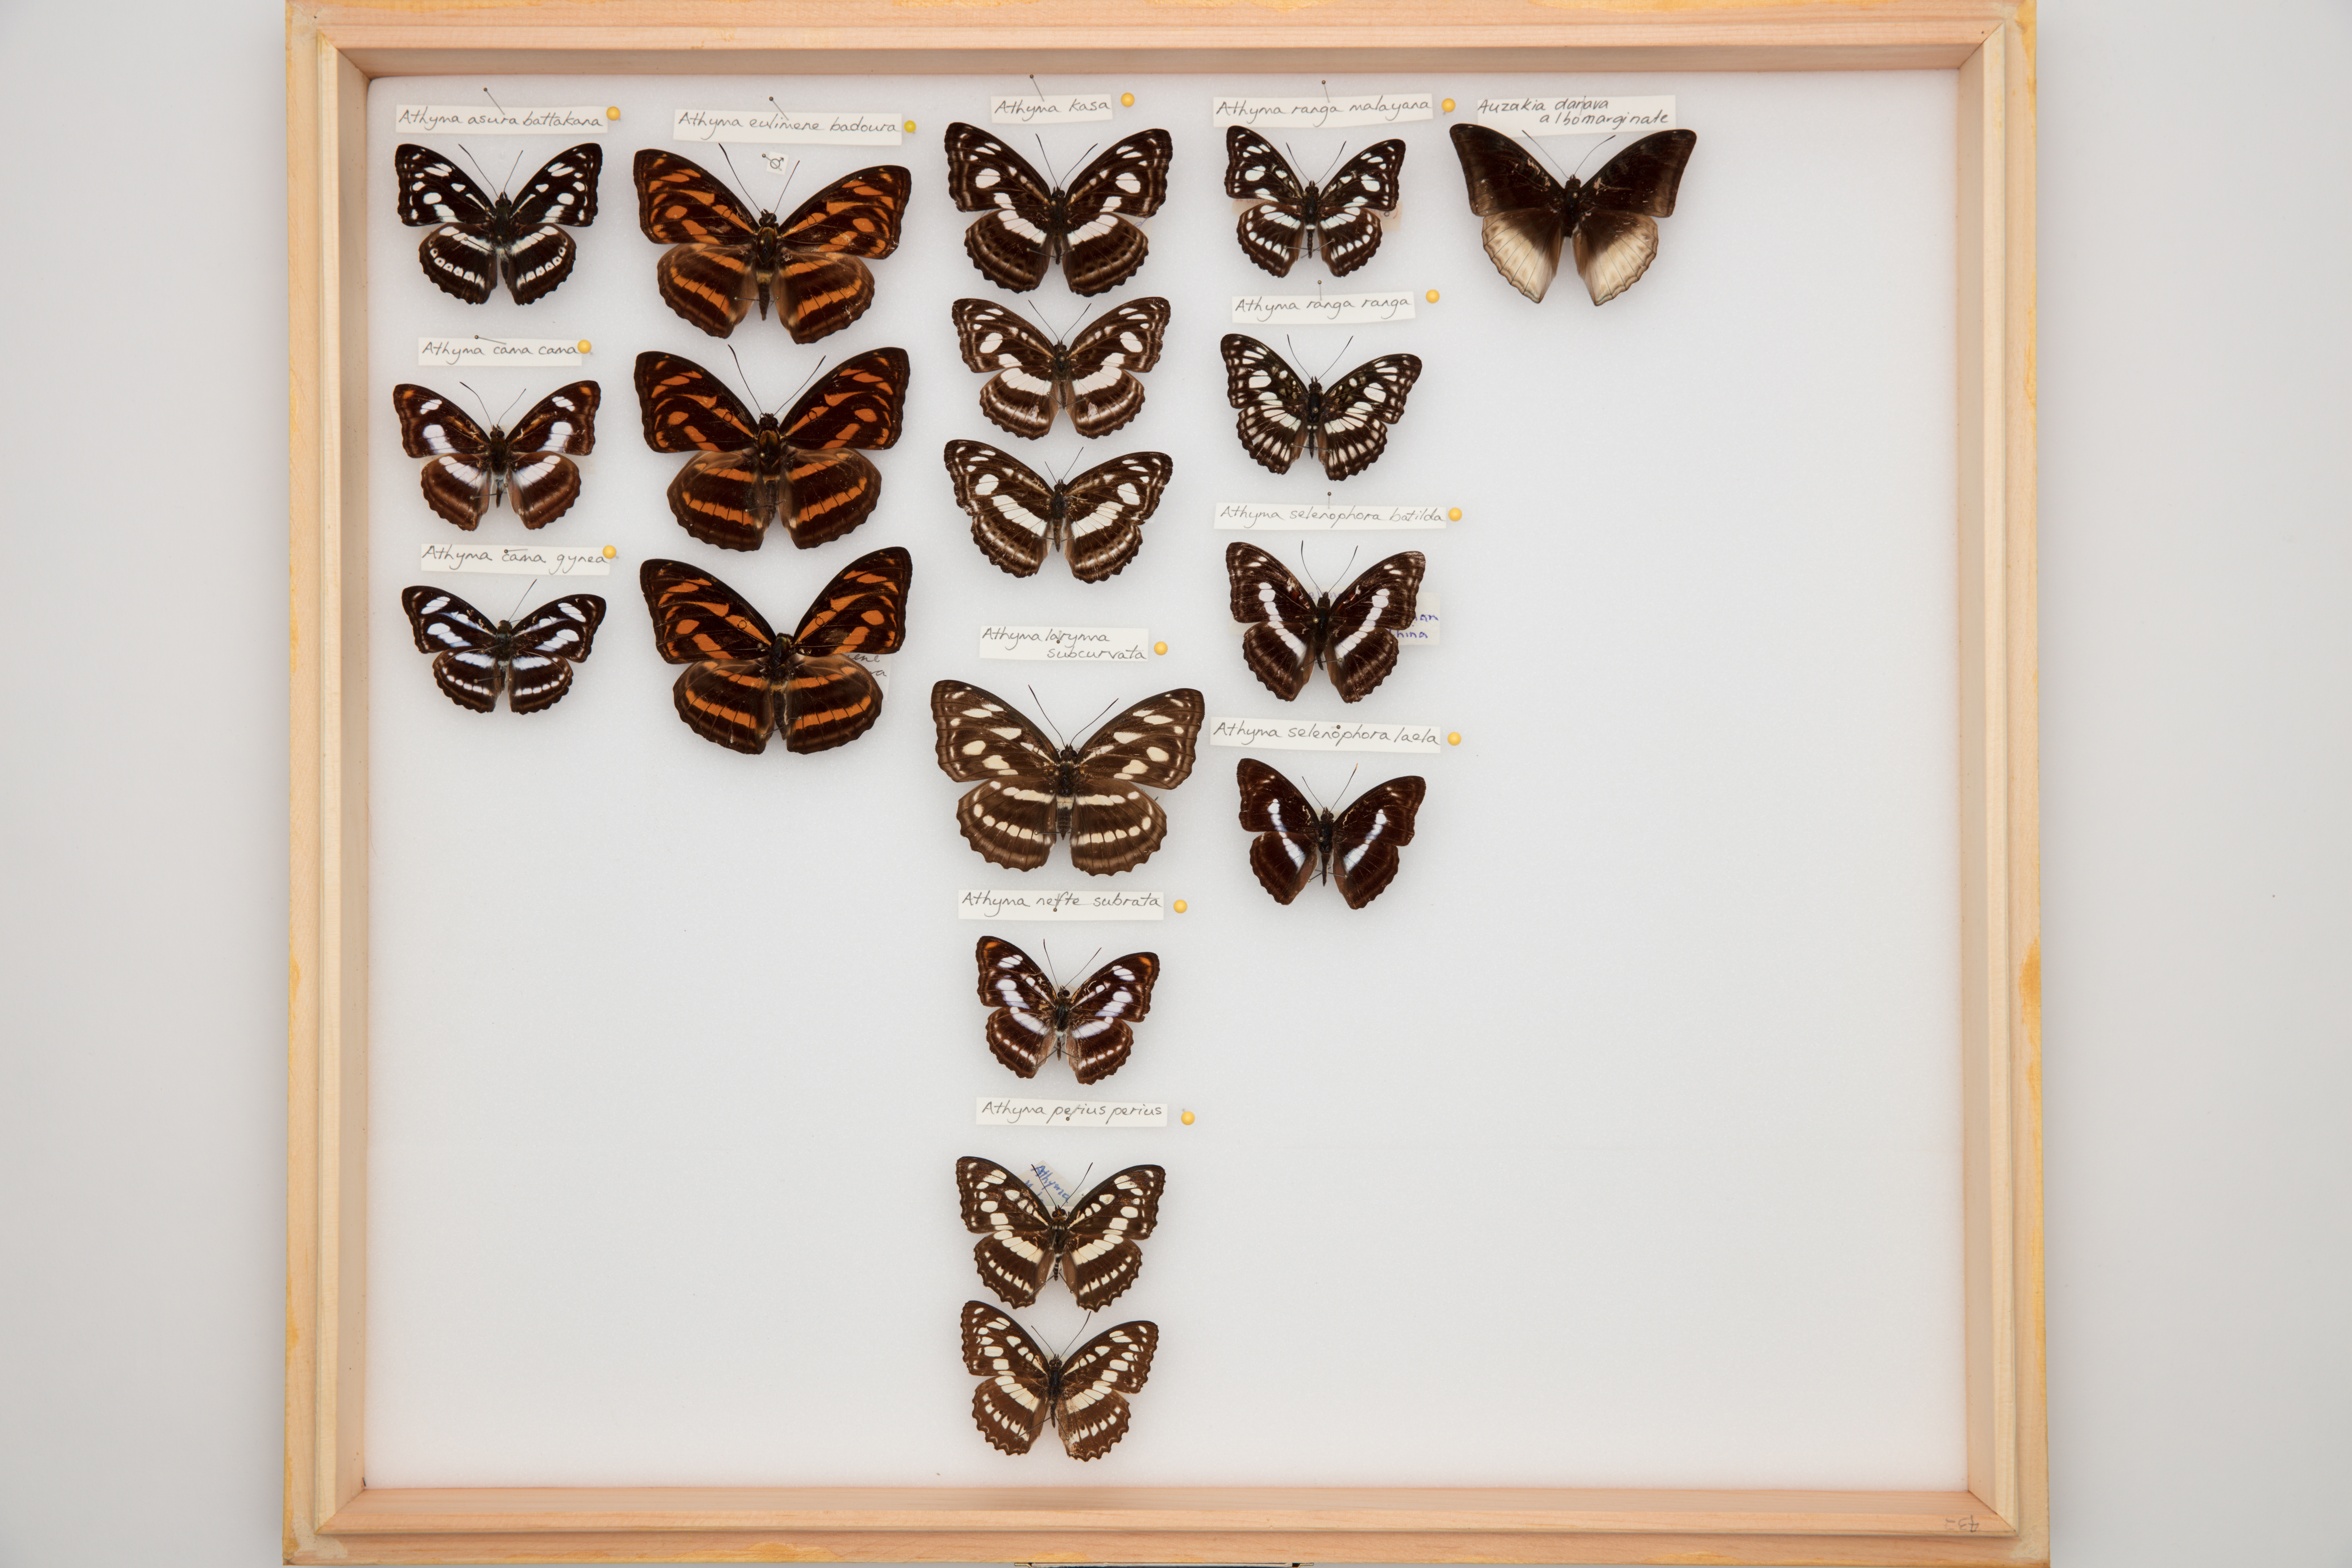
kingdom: Animalia
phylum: Arthropoda
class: Insecta
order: Lepidoptera
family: Nymphalidae
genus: Parathyma
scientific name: Parathyma perius
